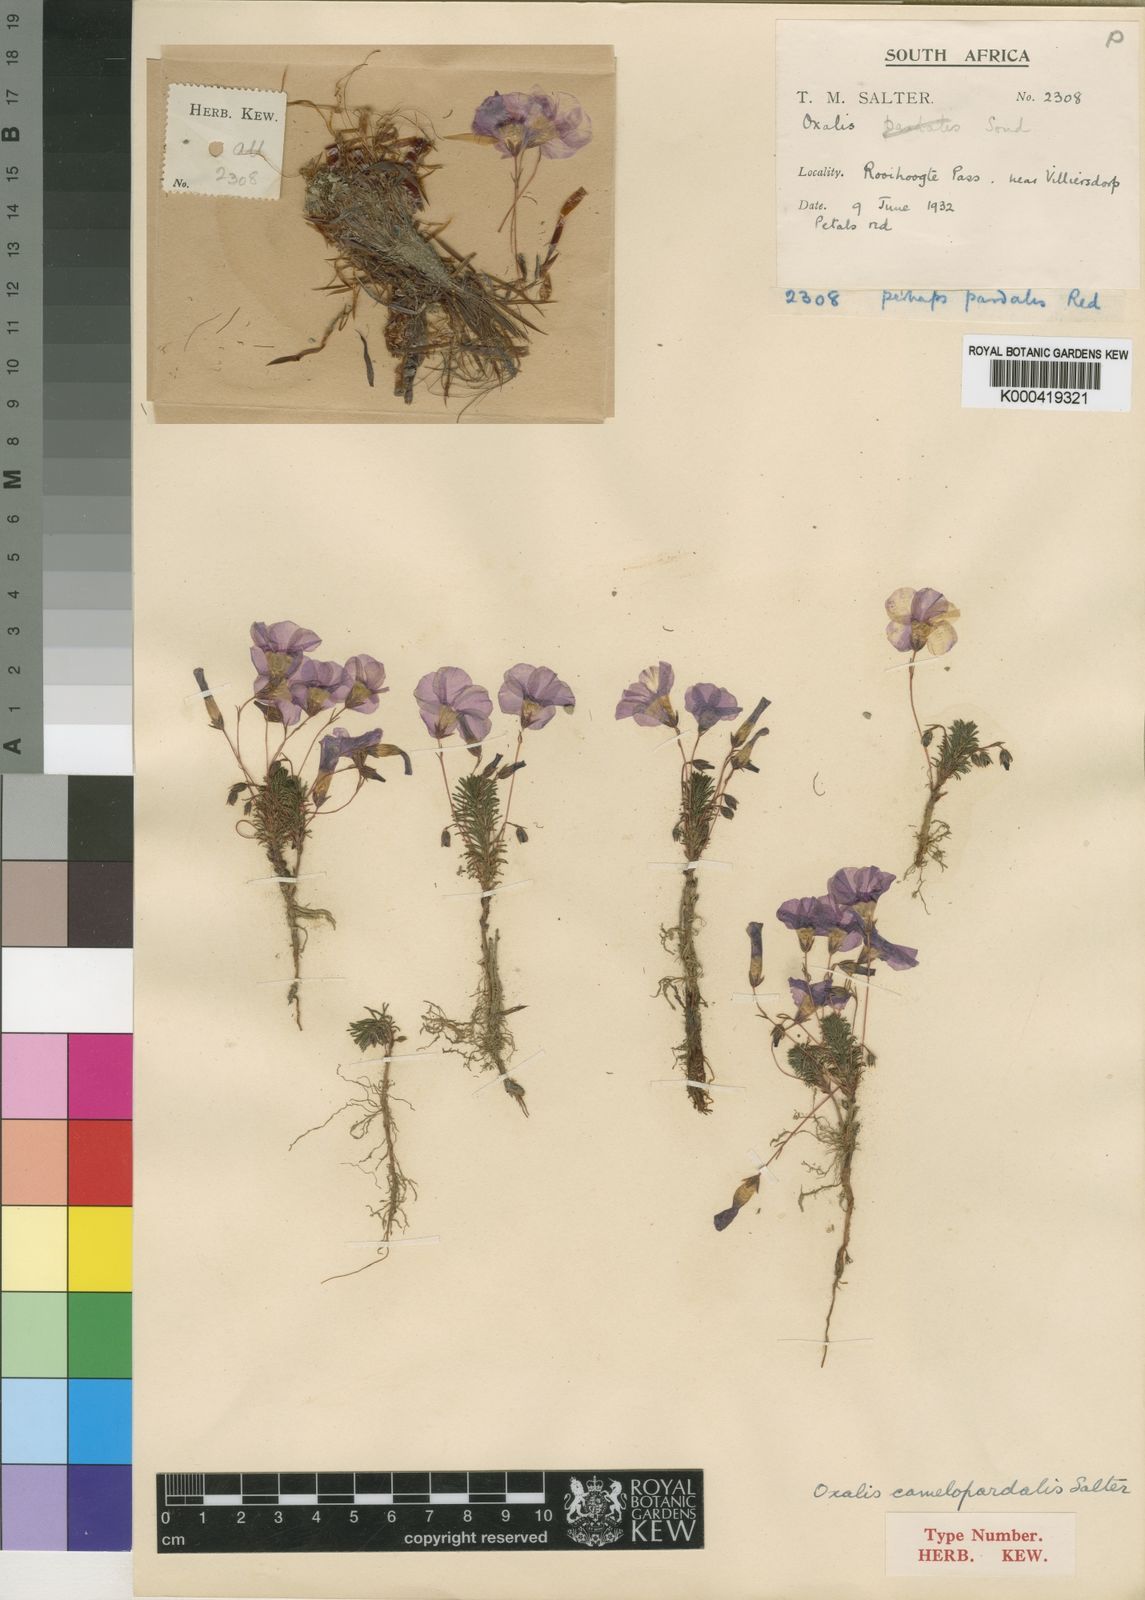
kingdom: Plantae
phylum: Tracheophyta
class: Magnoliopsida
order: Oxalidales
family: Oxalidaceae
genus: Oxalis
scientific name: Oxalis camelopardalis
